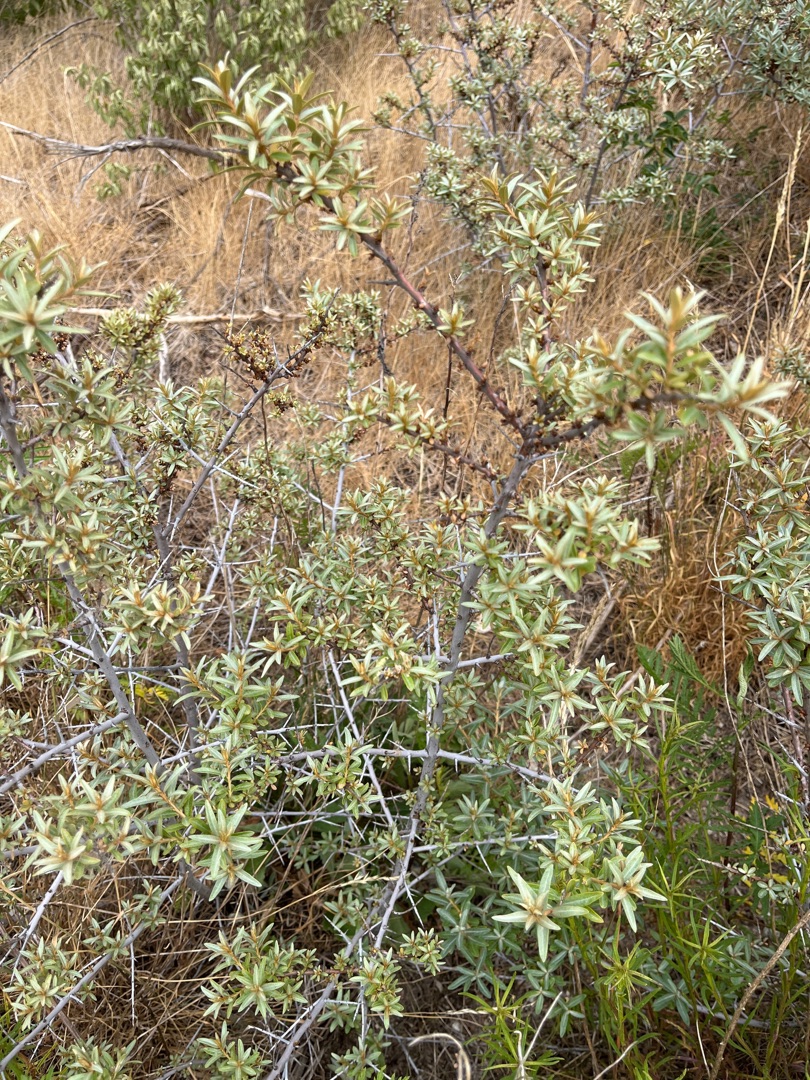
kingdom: Plantae
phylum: Tracheophyta
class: Magnoliopsida
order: Rosales
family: Elaeagnaceae
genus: Hippophae
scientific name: Hippophae rhamnoides
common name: Havtorn
